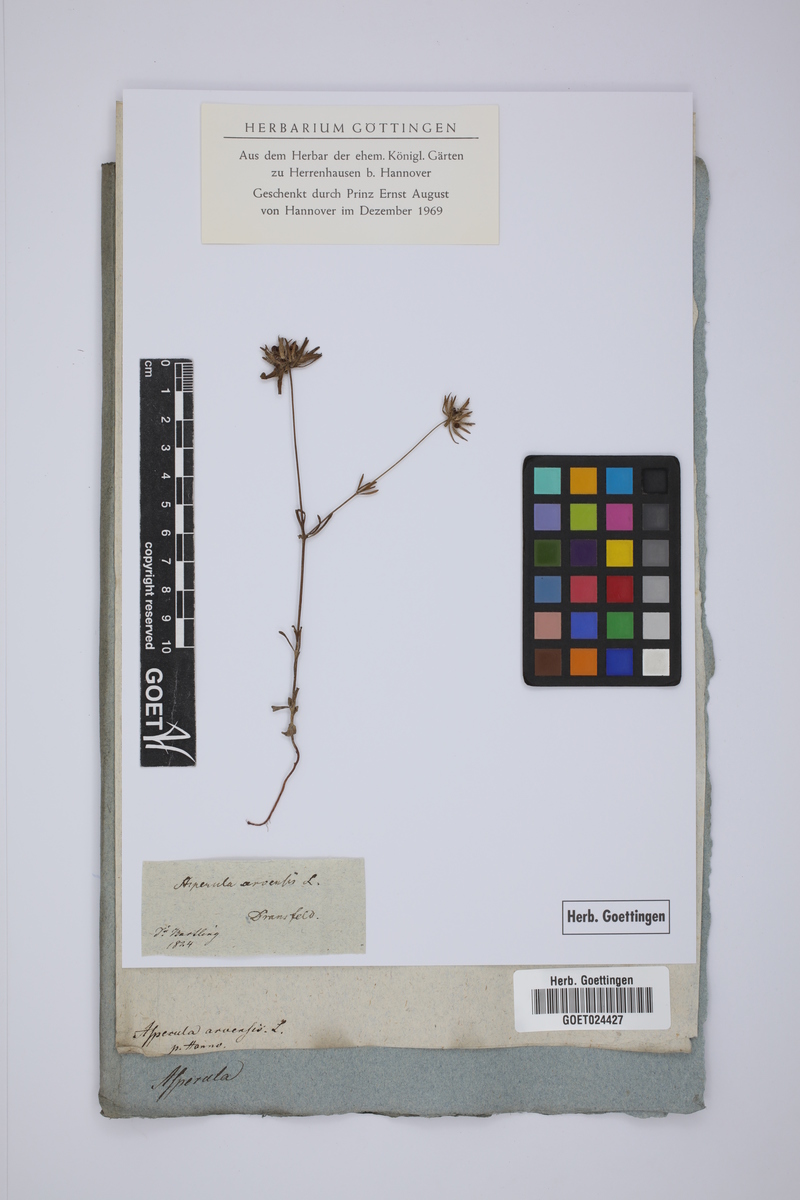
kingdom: Plantae
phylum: Tracheophyta
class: Magnoliopsida
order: Gentianales
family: Rubiaceae
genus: Asperula
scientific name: Asperula arvensis
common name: Blue woodruff
